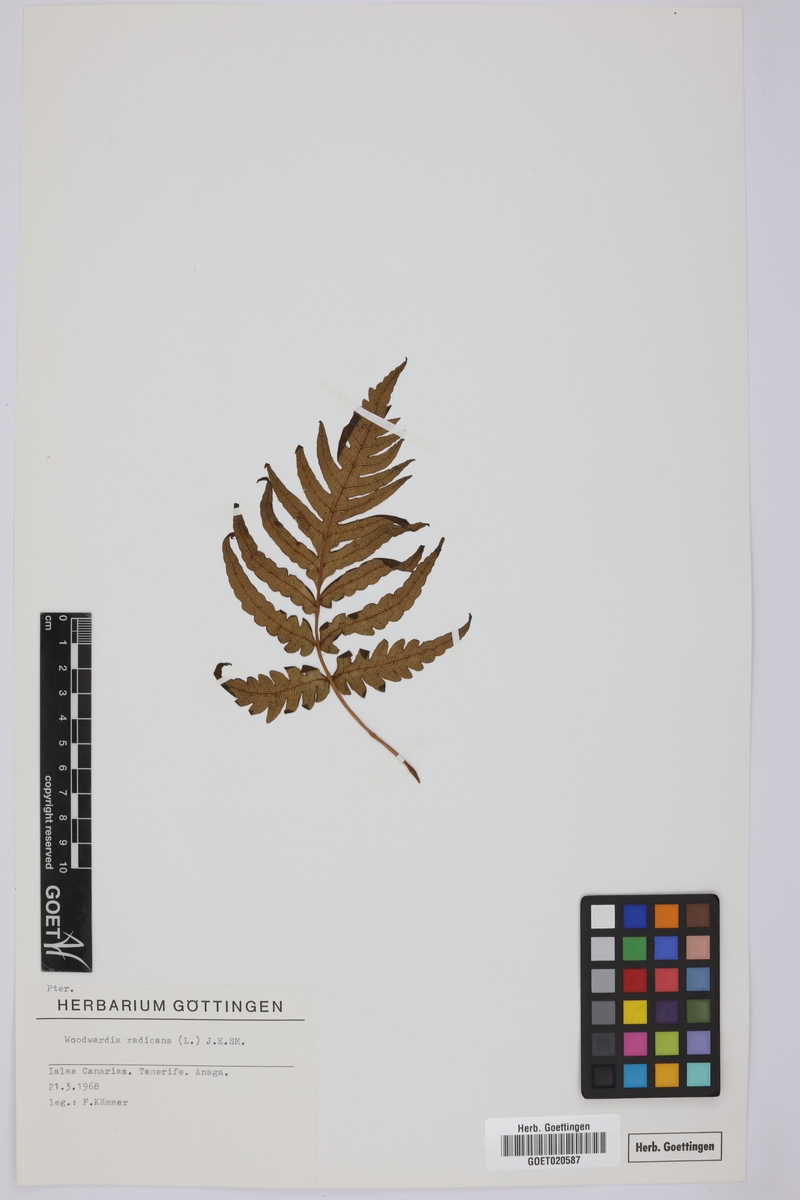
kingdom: Plantae
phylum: Tracheophyta
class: Polypodiopsida
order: Polypodiales
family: Blechnaceae
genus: Woodwardia
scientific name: Woodwardia radicans
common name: Rooting chainfern
